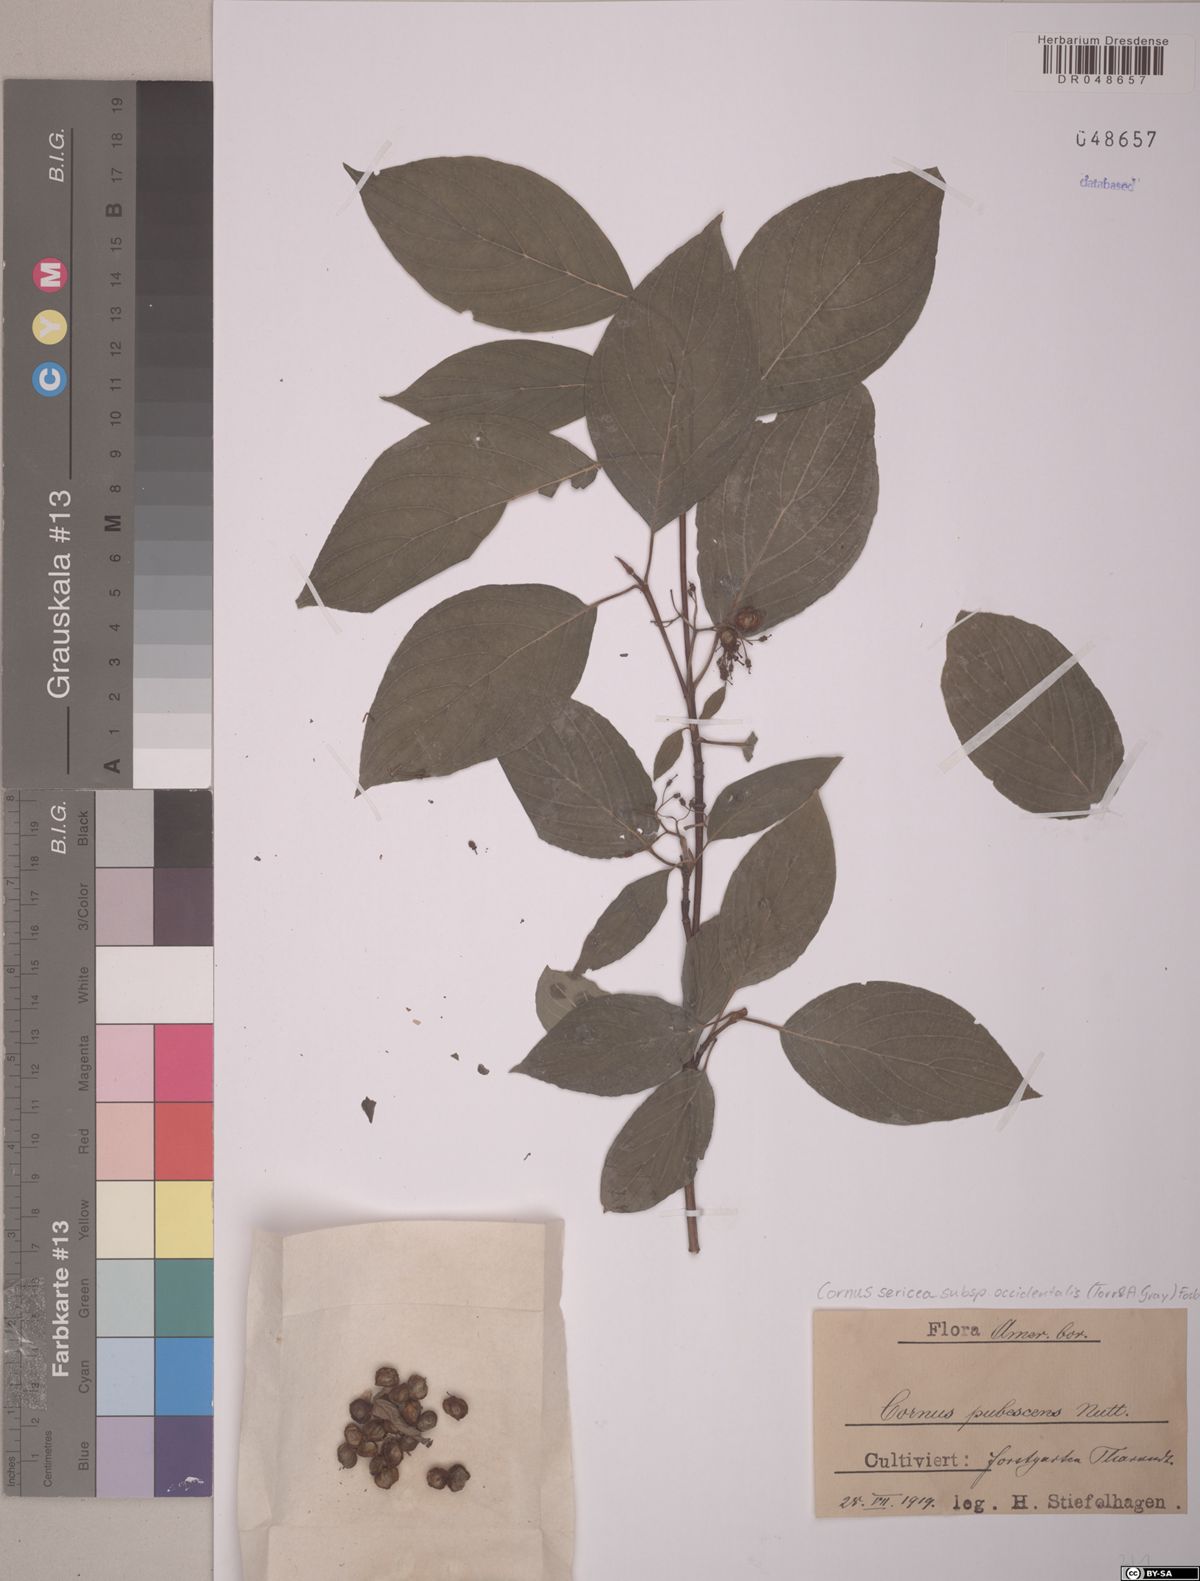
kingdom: Plantae
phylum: Tracheophyta
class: Magnoliopsida
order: Cornales
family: Cornaceae
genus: Cornus
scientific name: Cornus torreyi
